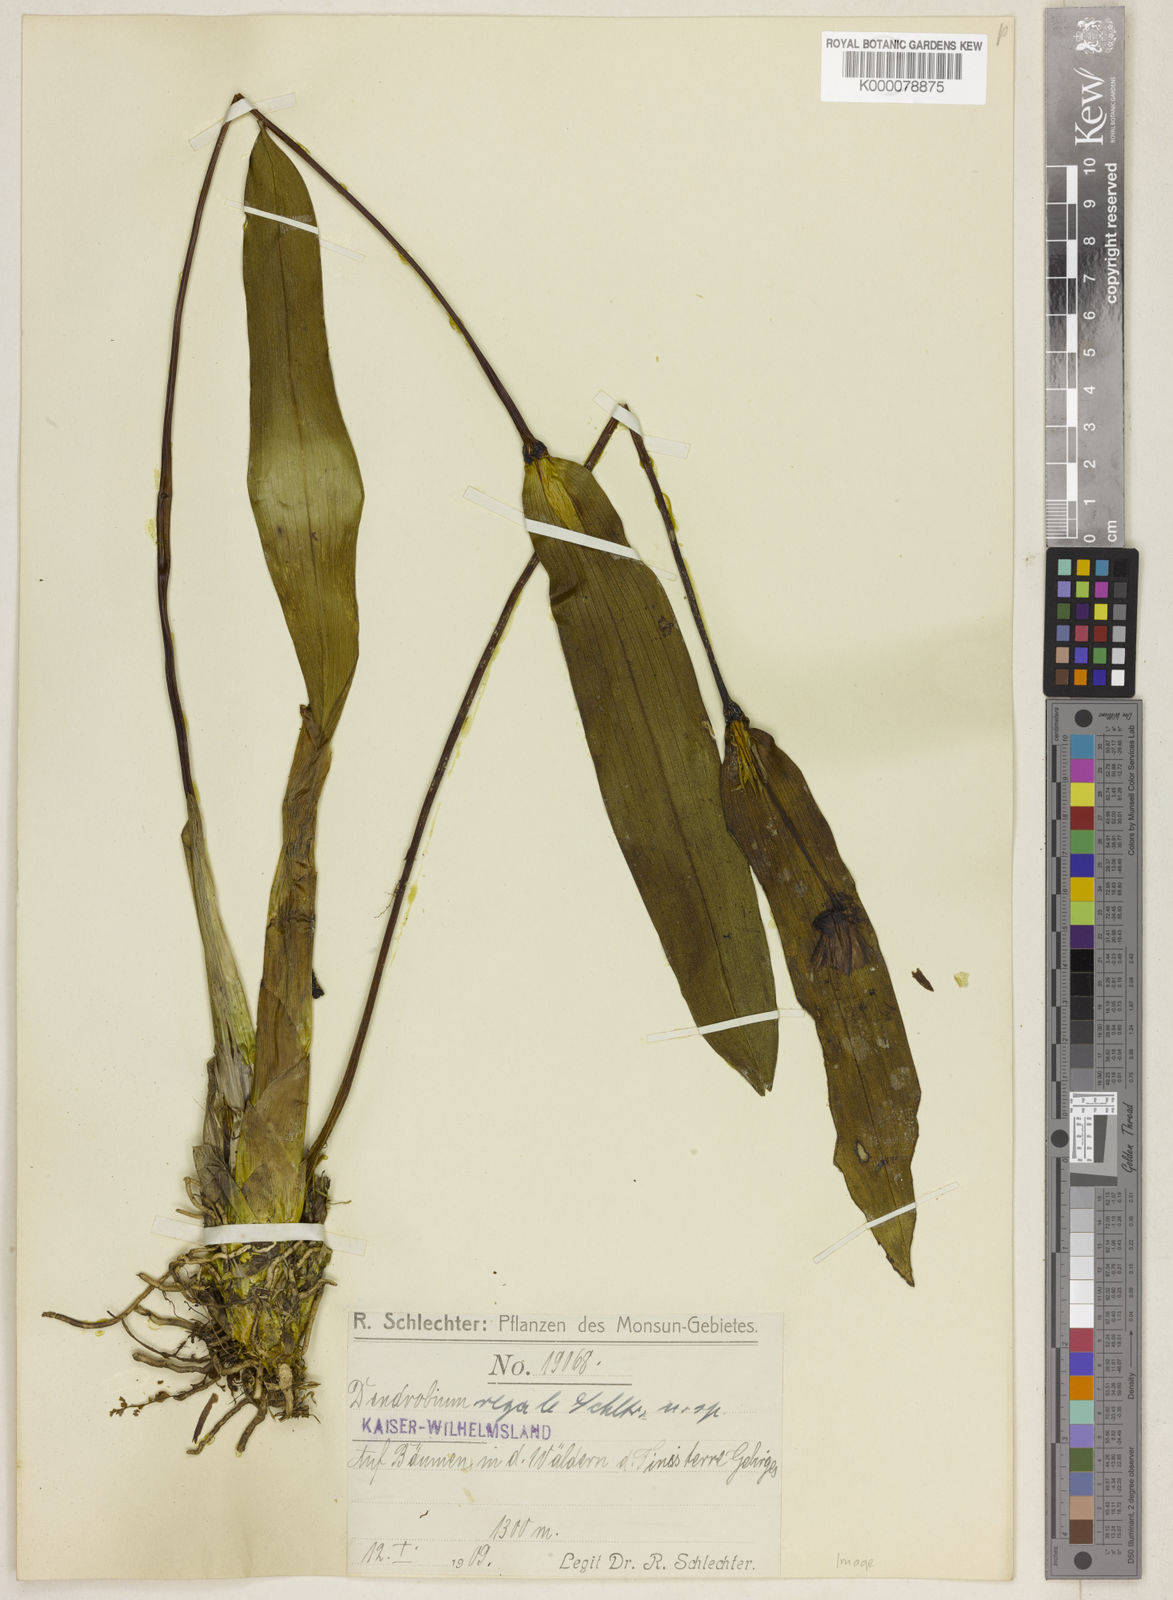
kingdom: Plantae
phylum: Tracheophyta
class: Liliopsida
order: Asparagales
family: Orchidaceae
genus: Dendrobium
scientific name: Dendrobium regale
